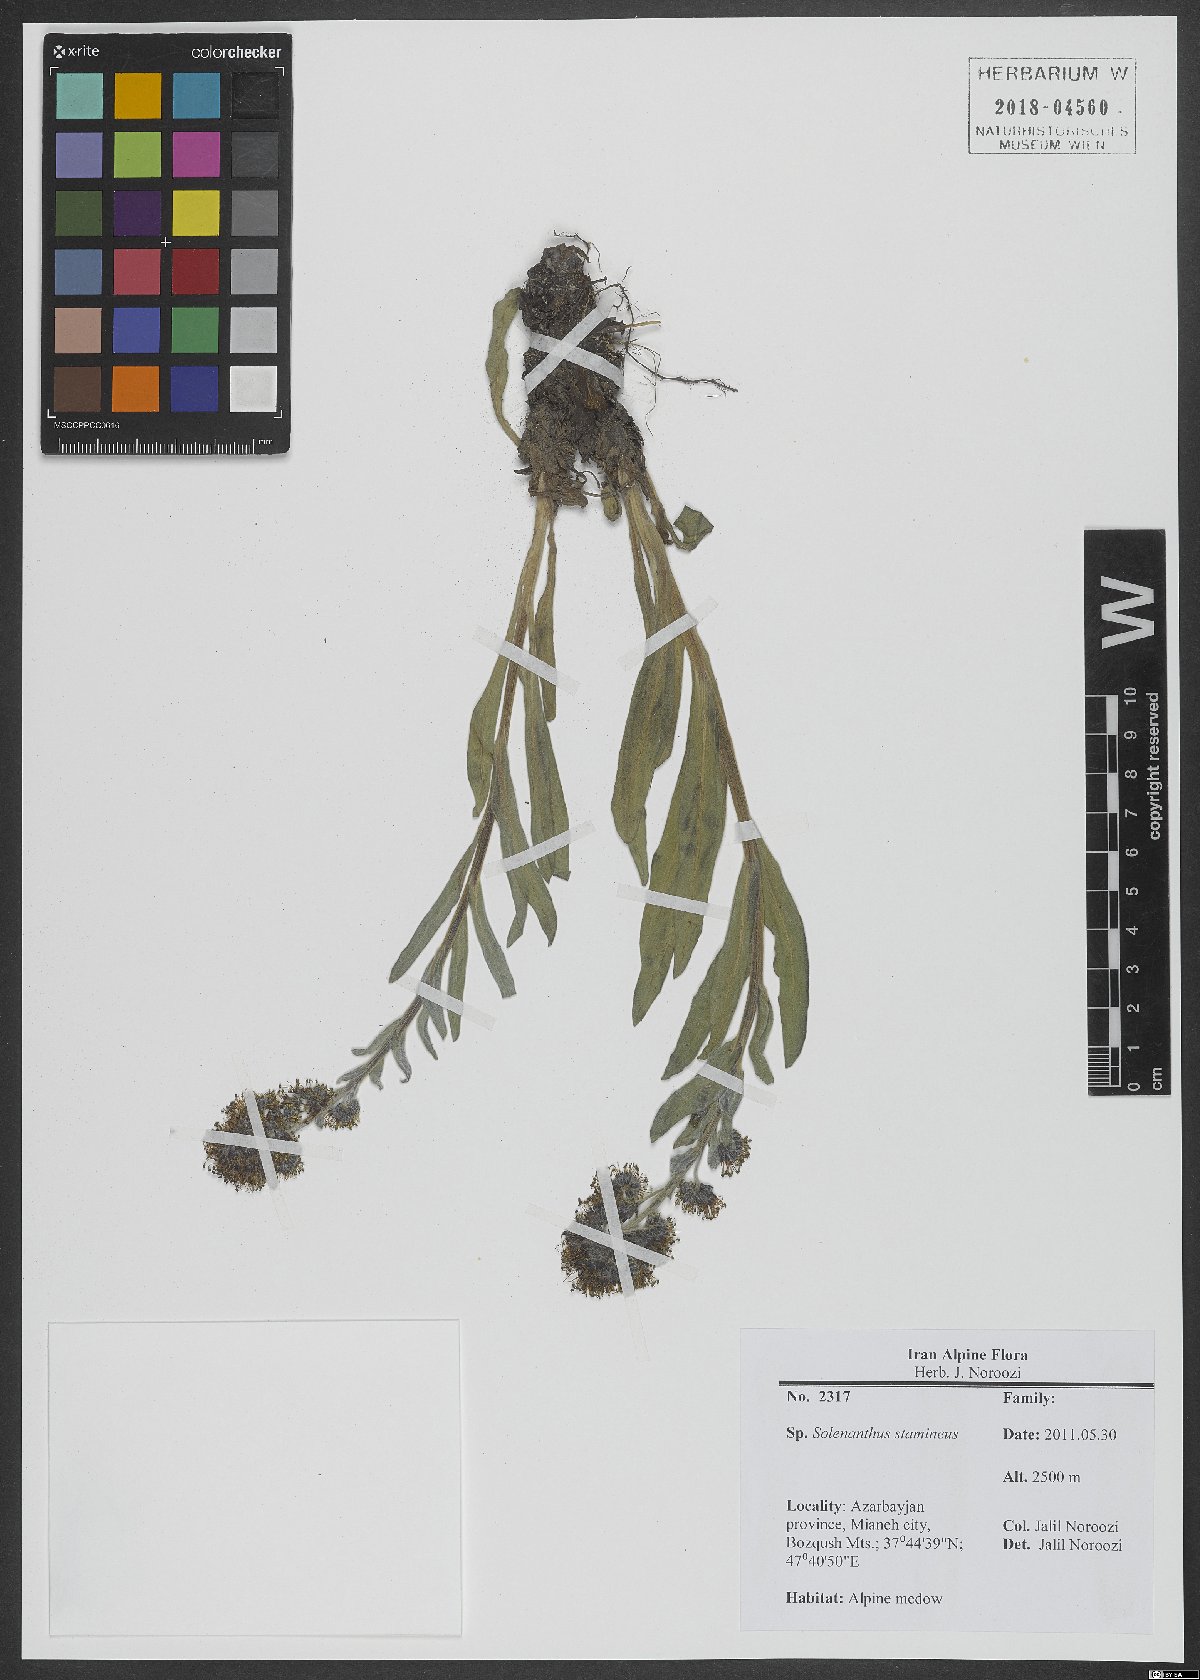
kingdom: Plantae
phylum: Tracheophyta
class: Magnoliopsida
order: Boraginales
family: Boraginaceae
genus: Solenanthus
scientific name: Solenanthus stamineus
